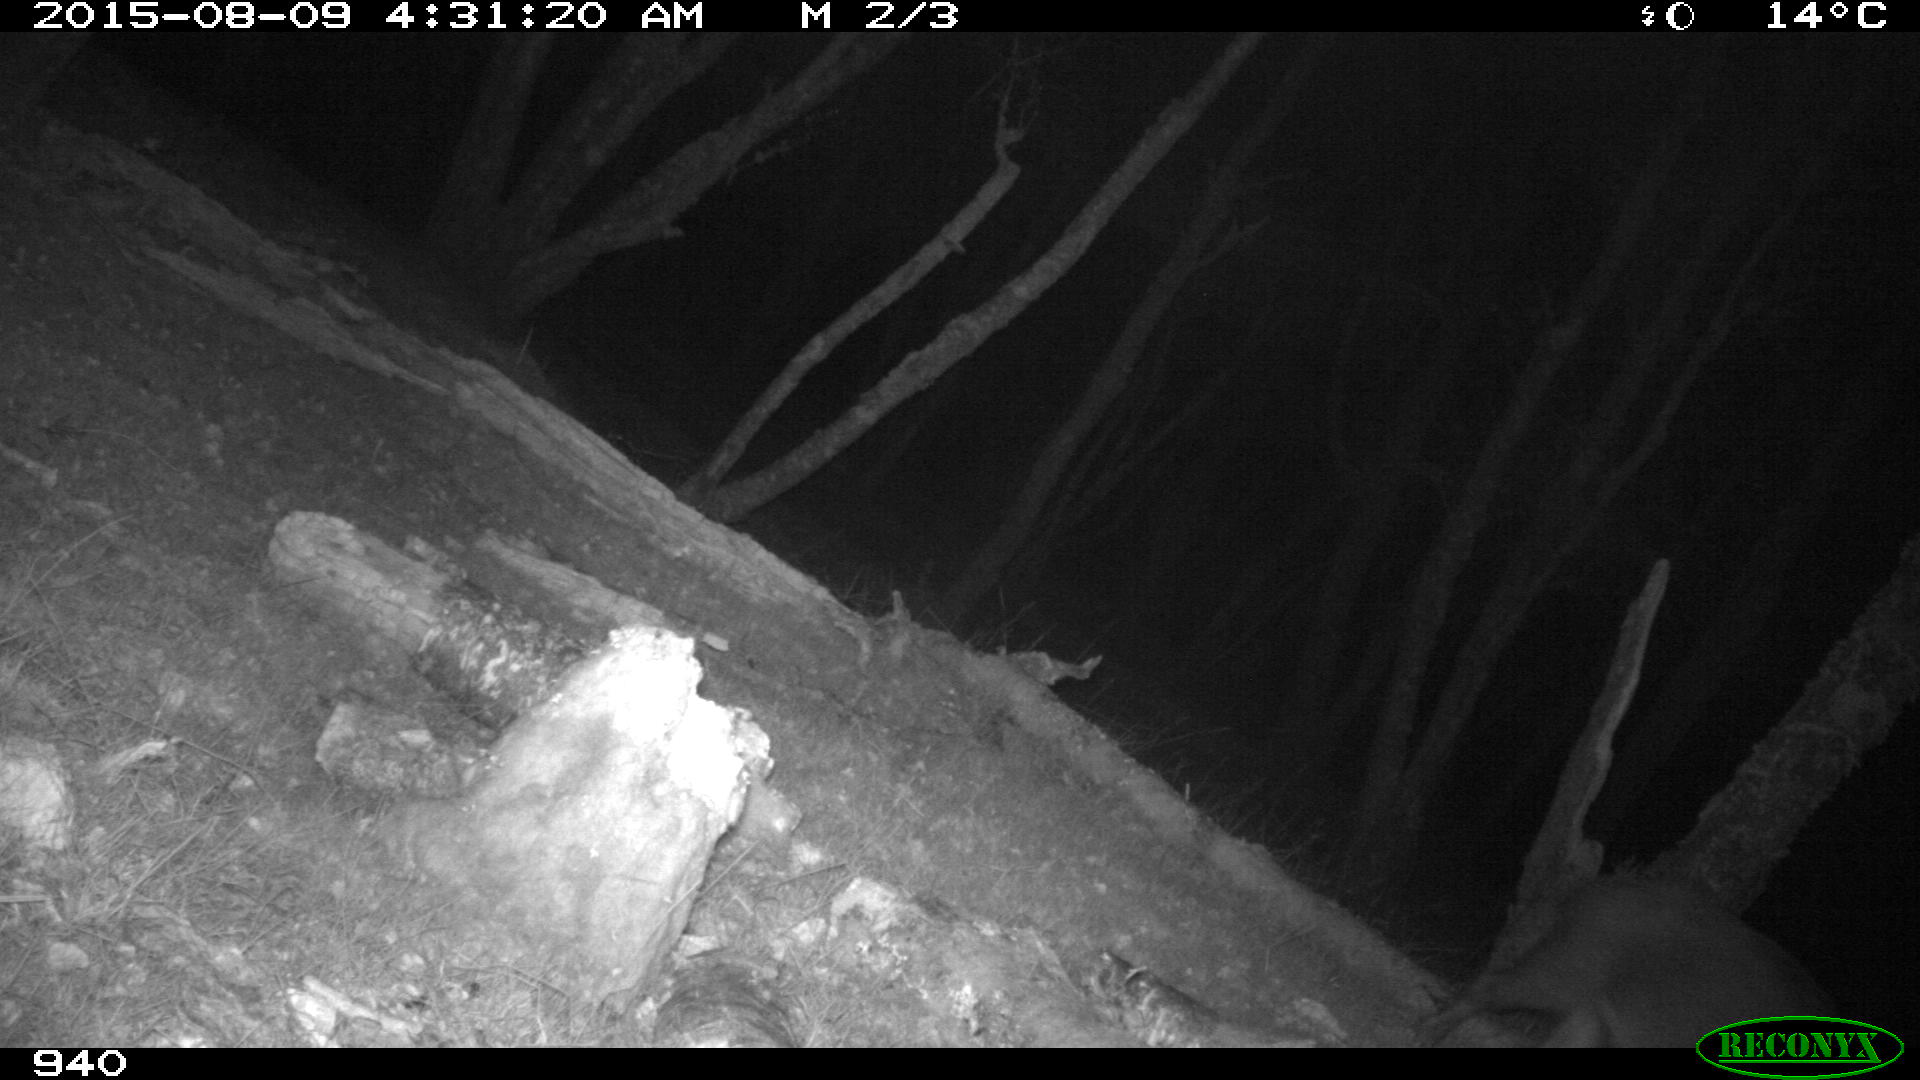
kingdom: Animalia
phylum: Chordata
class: Mammalia
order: Artiodactyla
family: Suidae
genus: Sus
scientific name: Sus scrofa
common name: Wild boar
